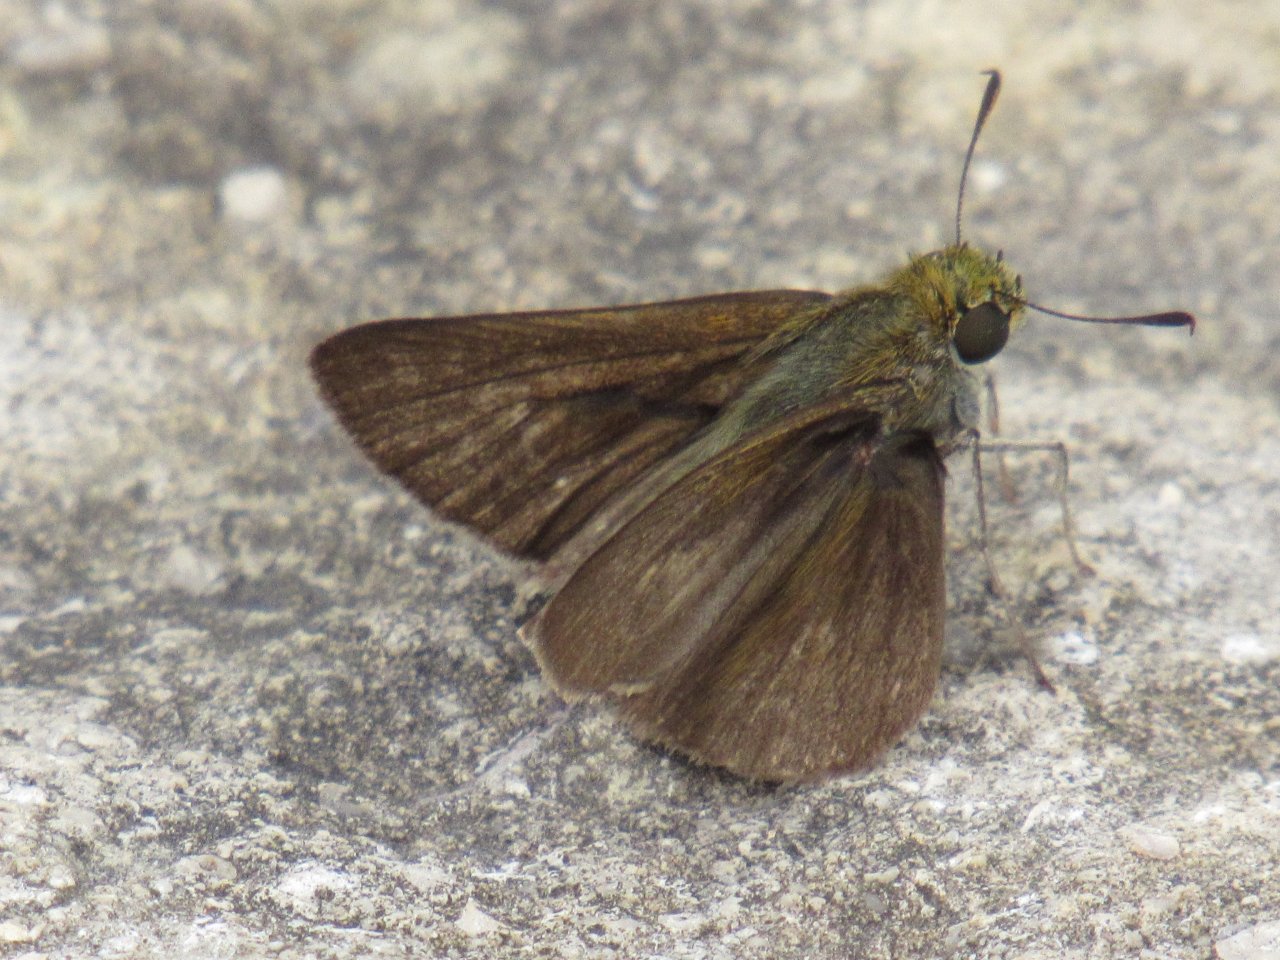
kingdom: Animalia
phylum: Arthropoda
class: Insecta
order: Lepidoptera
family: Hesperiidae
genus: Euphyes
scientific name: Euphyes vestris
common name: Dun Skipper
